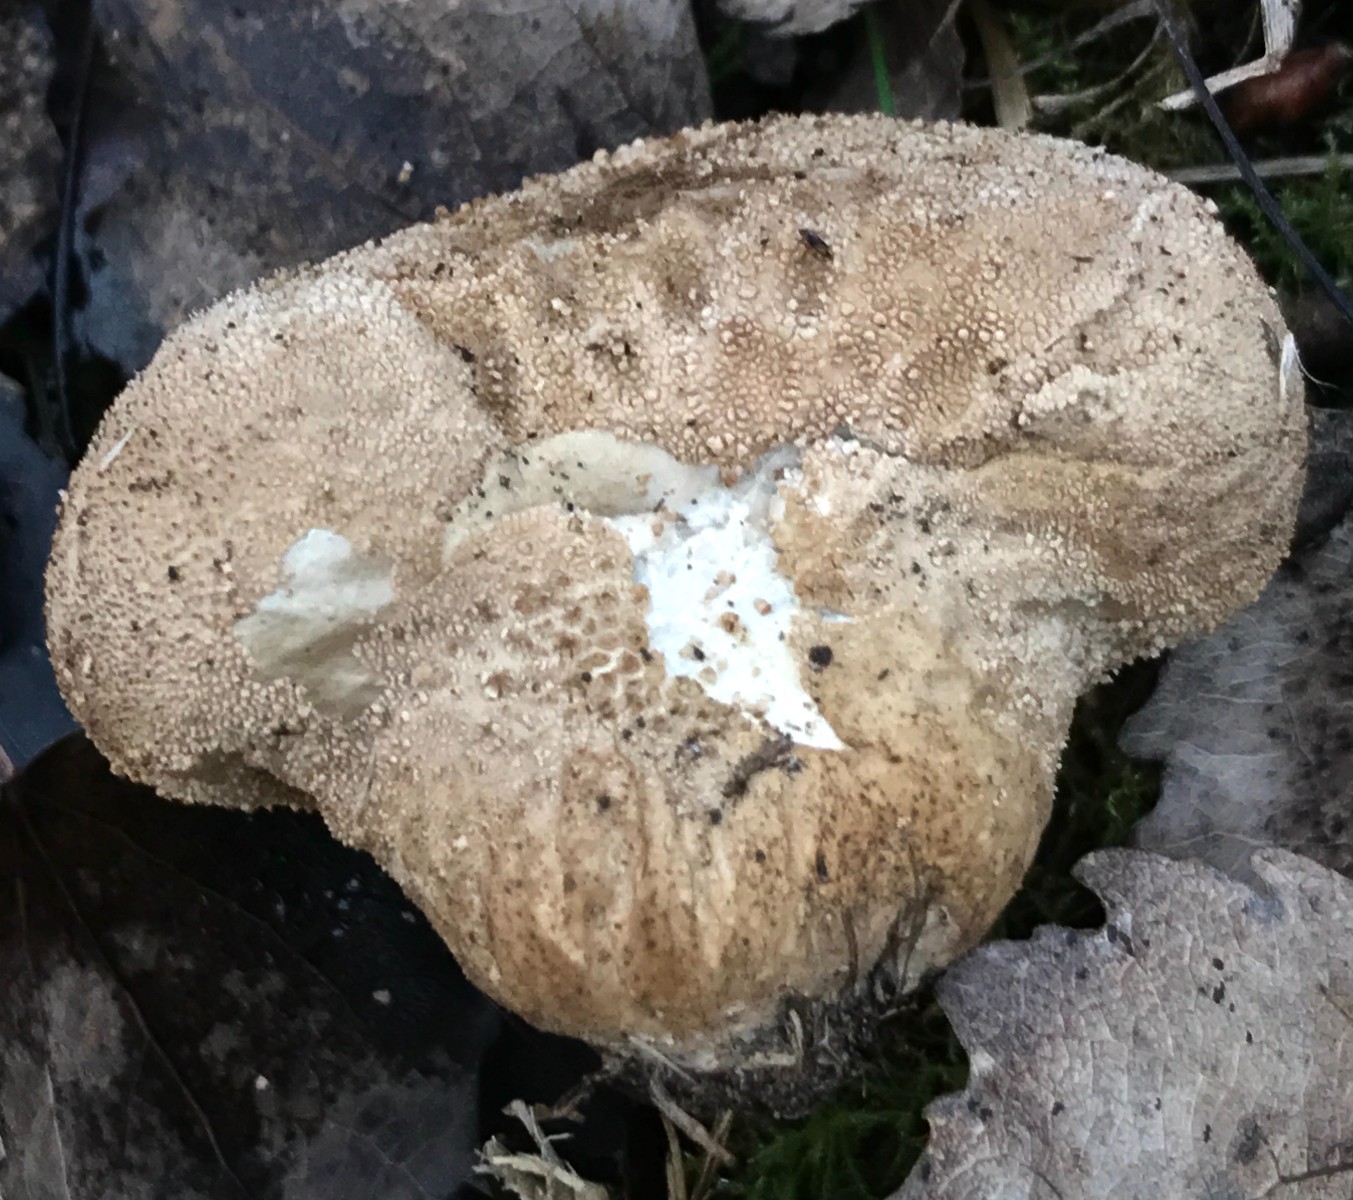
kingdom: Fungi
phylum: Basidiomycota
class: Agaricomycetes
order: Agaricales
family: Agaricaceae
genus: Lycoperdon
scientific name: Lycoperdon
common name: støvbold
